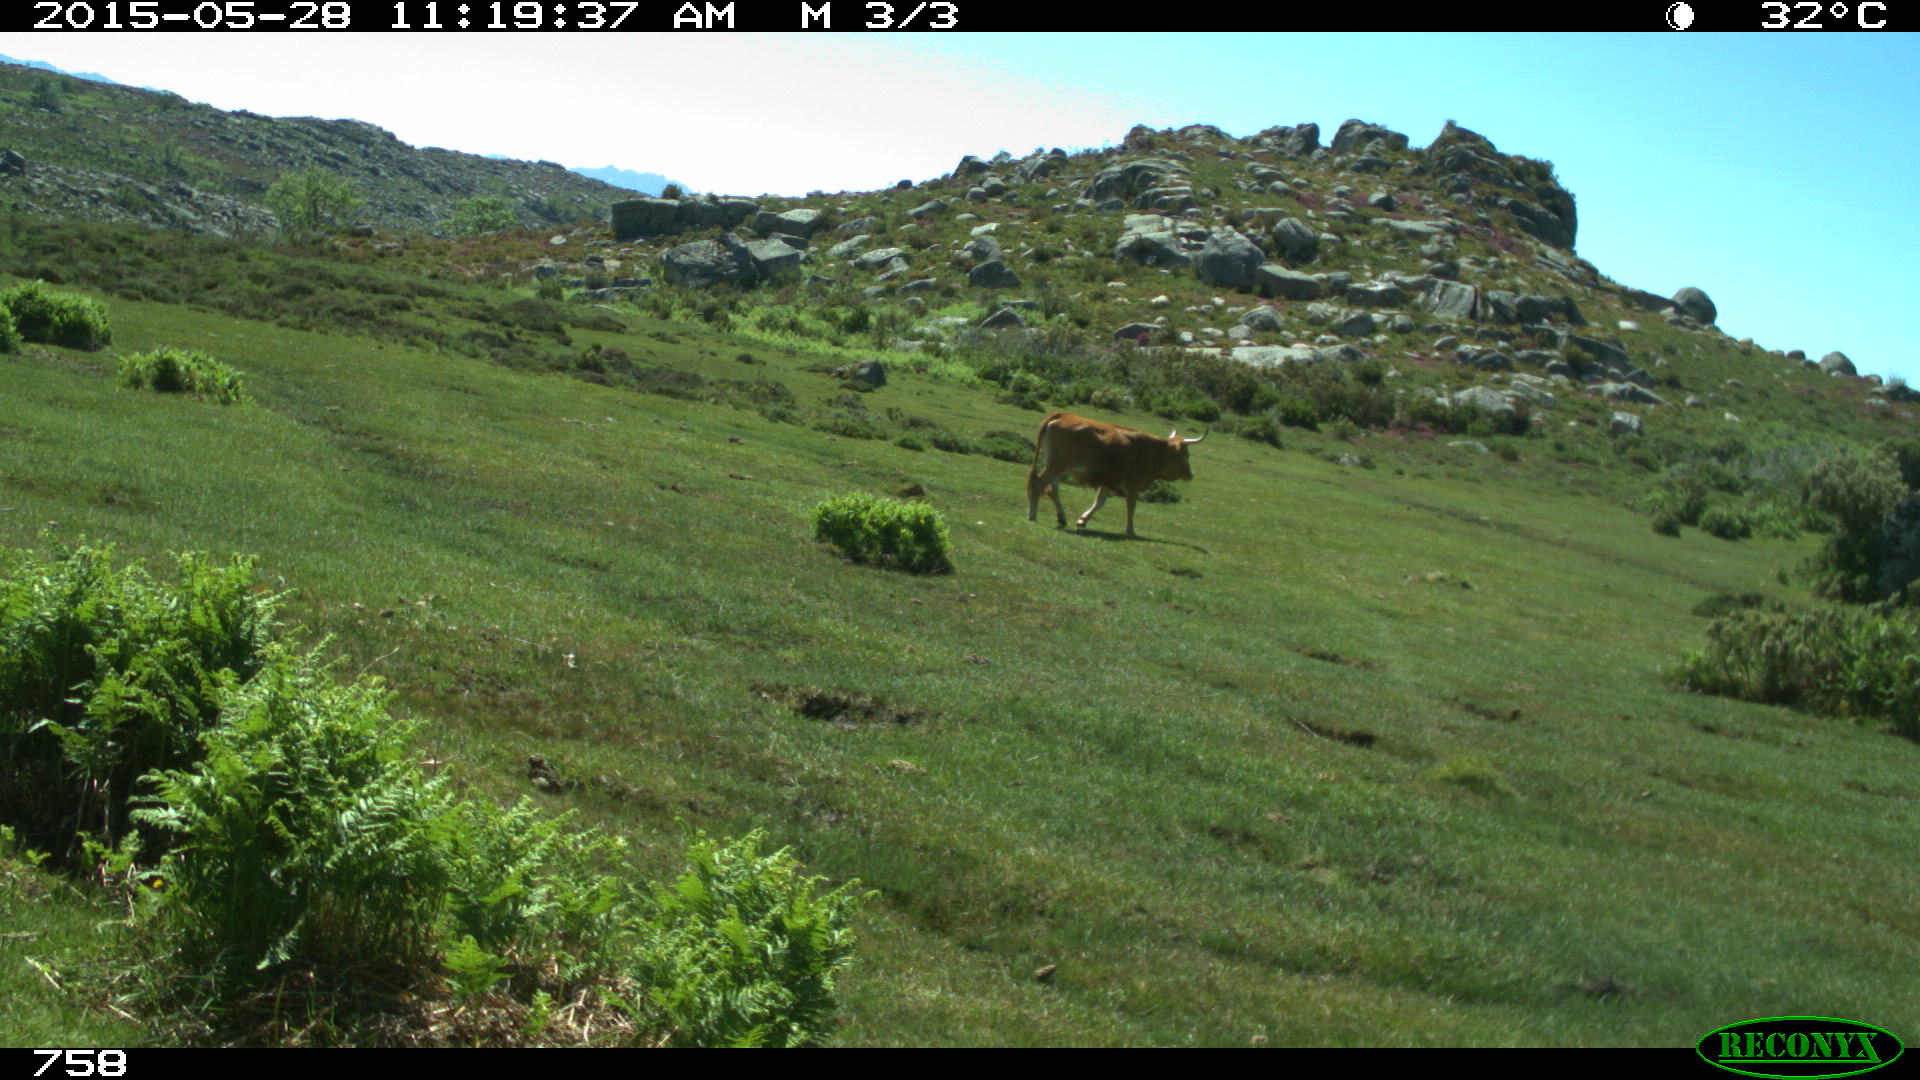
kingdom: Animalia
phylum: Chordata
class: Mammalia
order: Artiodactyla
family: Bovidae
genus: Bos
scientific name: Bos taurus
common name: Domesticated cattle
